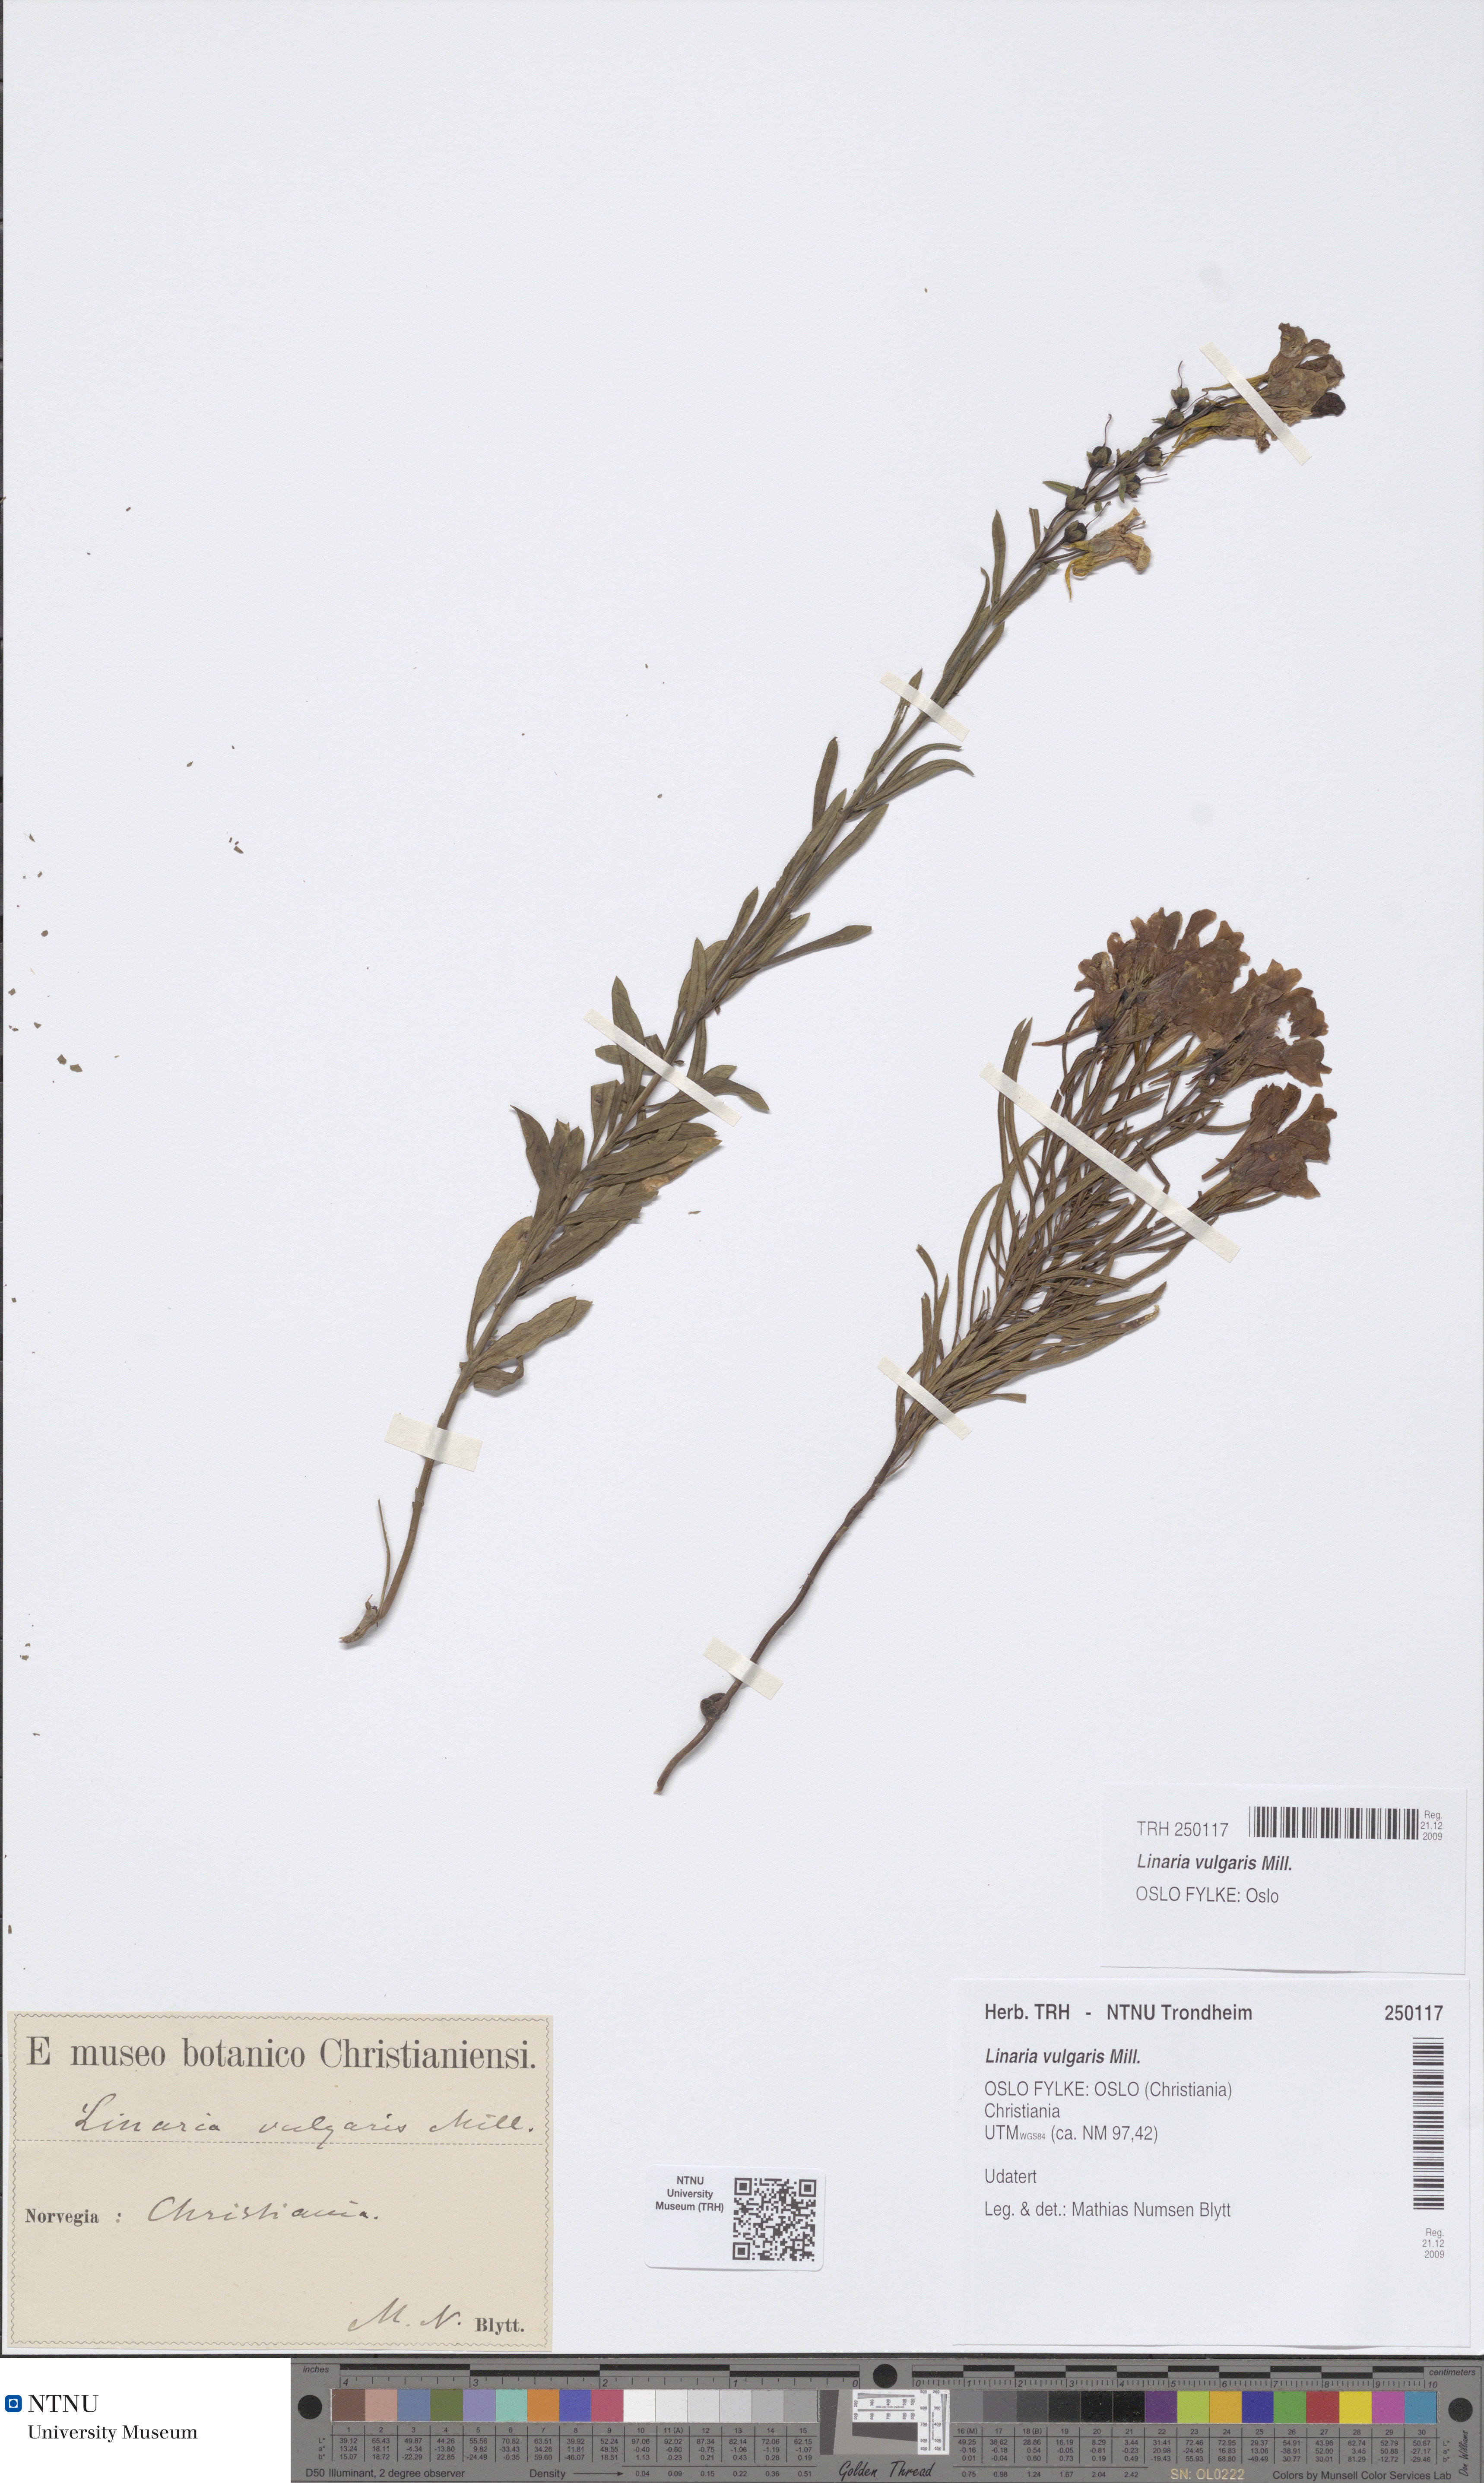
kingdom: Plantae
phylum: Tracheophyta
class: Magnoliopsida
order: Lamiales
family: Plantaginaceae
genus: Linaria
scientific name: Linaria vulgaris
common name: Butter and eggs
